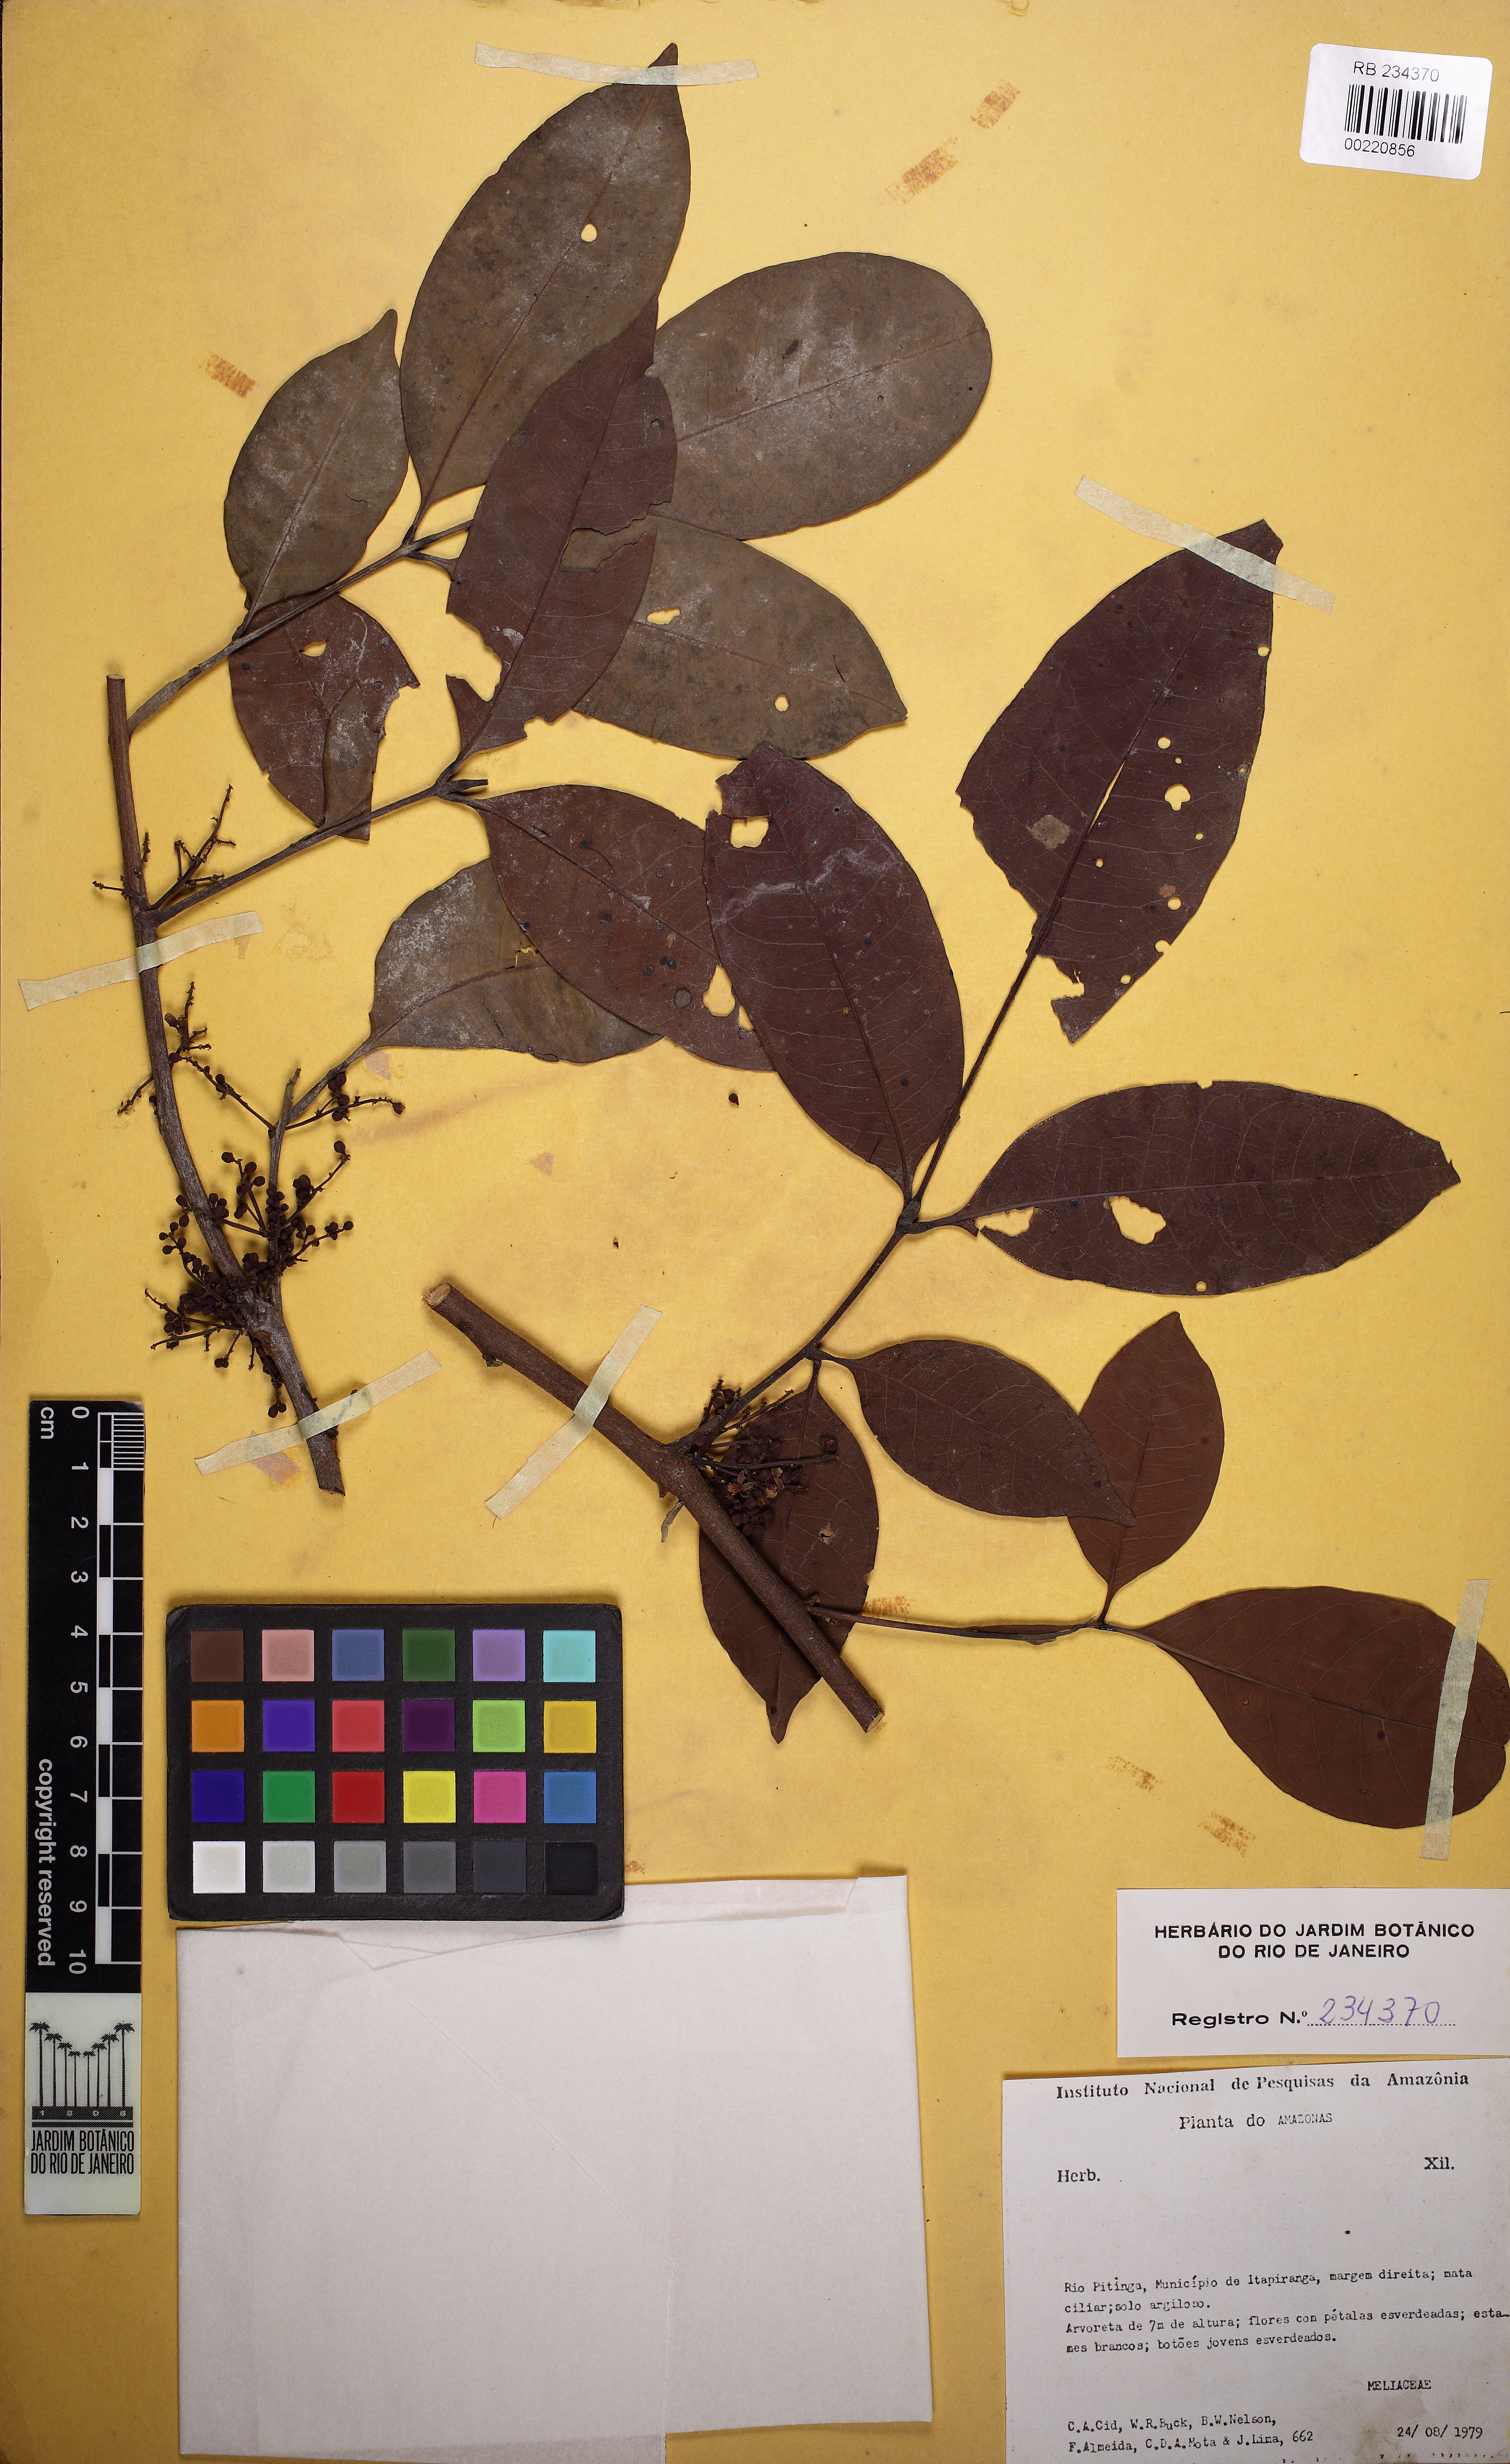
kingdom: Plantae
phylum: Tracheophyta
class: Magnoliopsida
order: Sapindales
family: Meliaceae
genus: Trichilia
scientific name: Trichilia rubra
